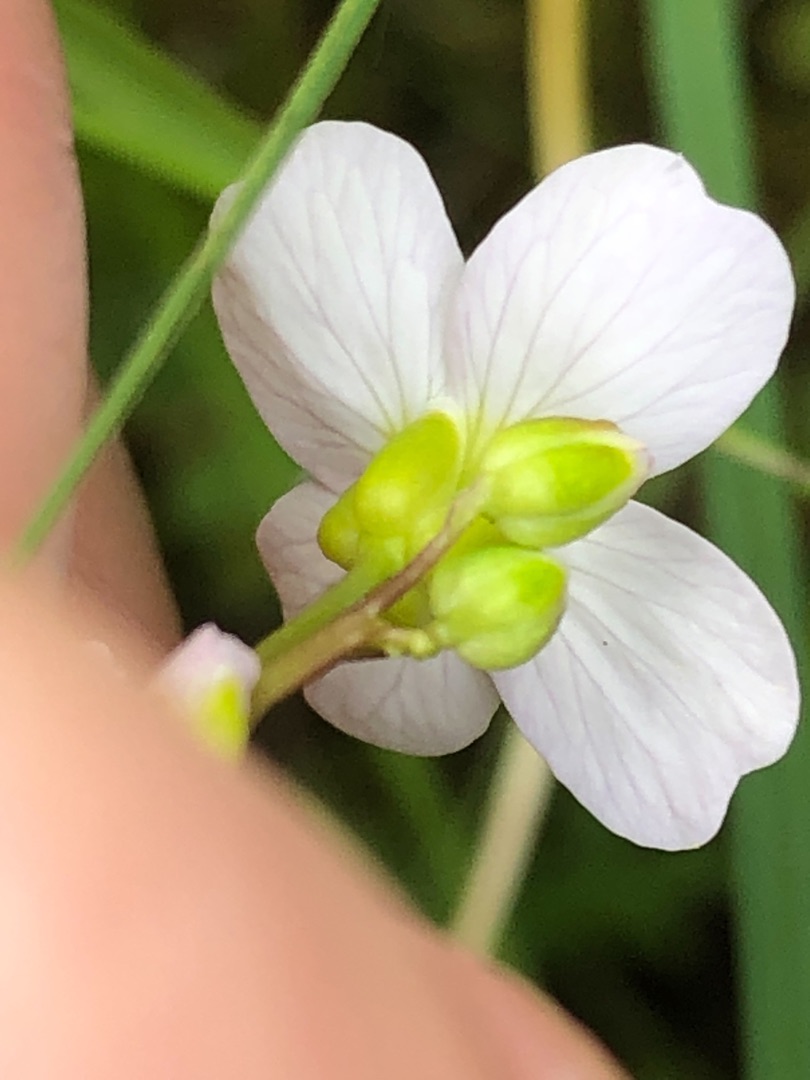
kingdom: Plantae
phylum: Tracheophyta
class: Magnoliopsida
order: Brassicales
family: Brassicaceae
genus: Cardamine
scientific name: Cardamine pratensis
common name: Engkarse
